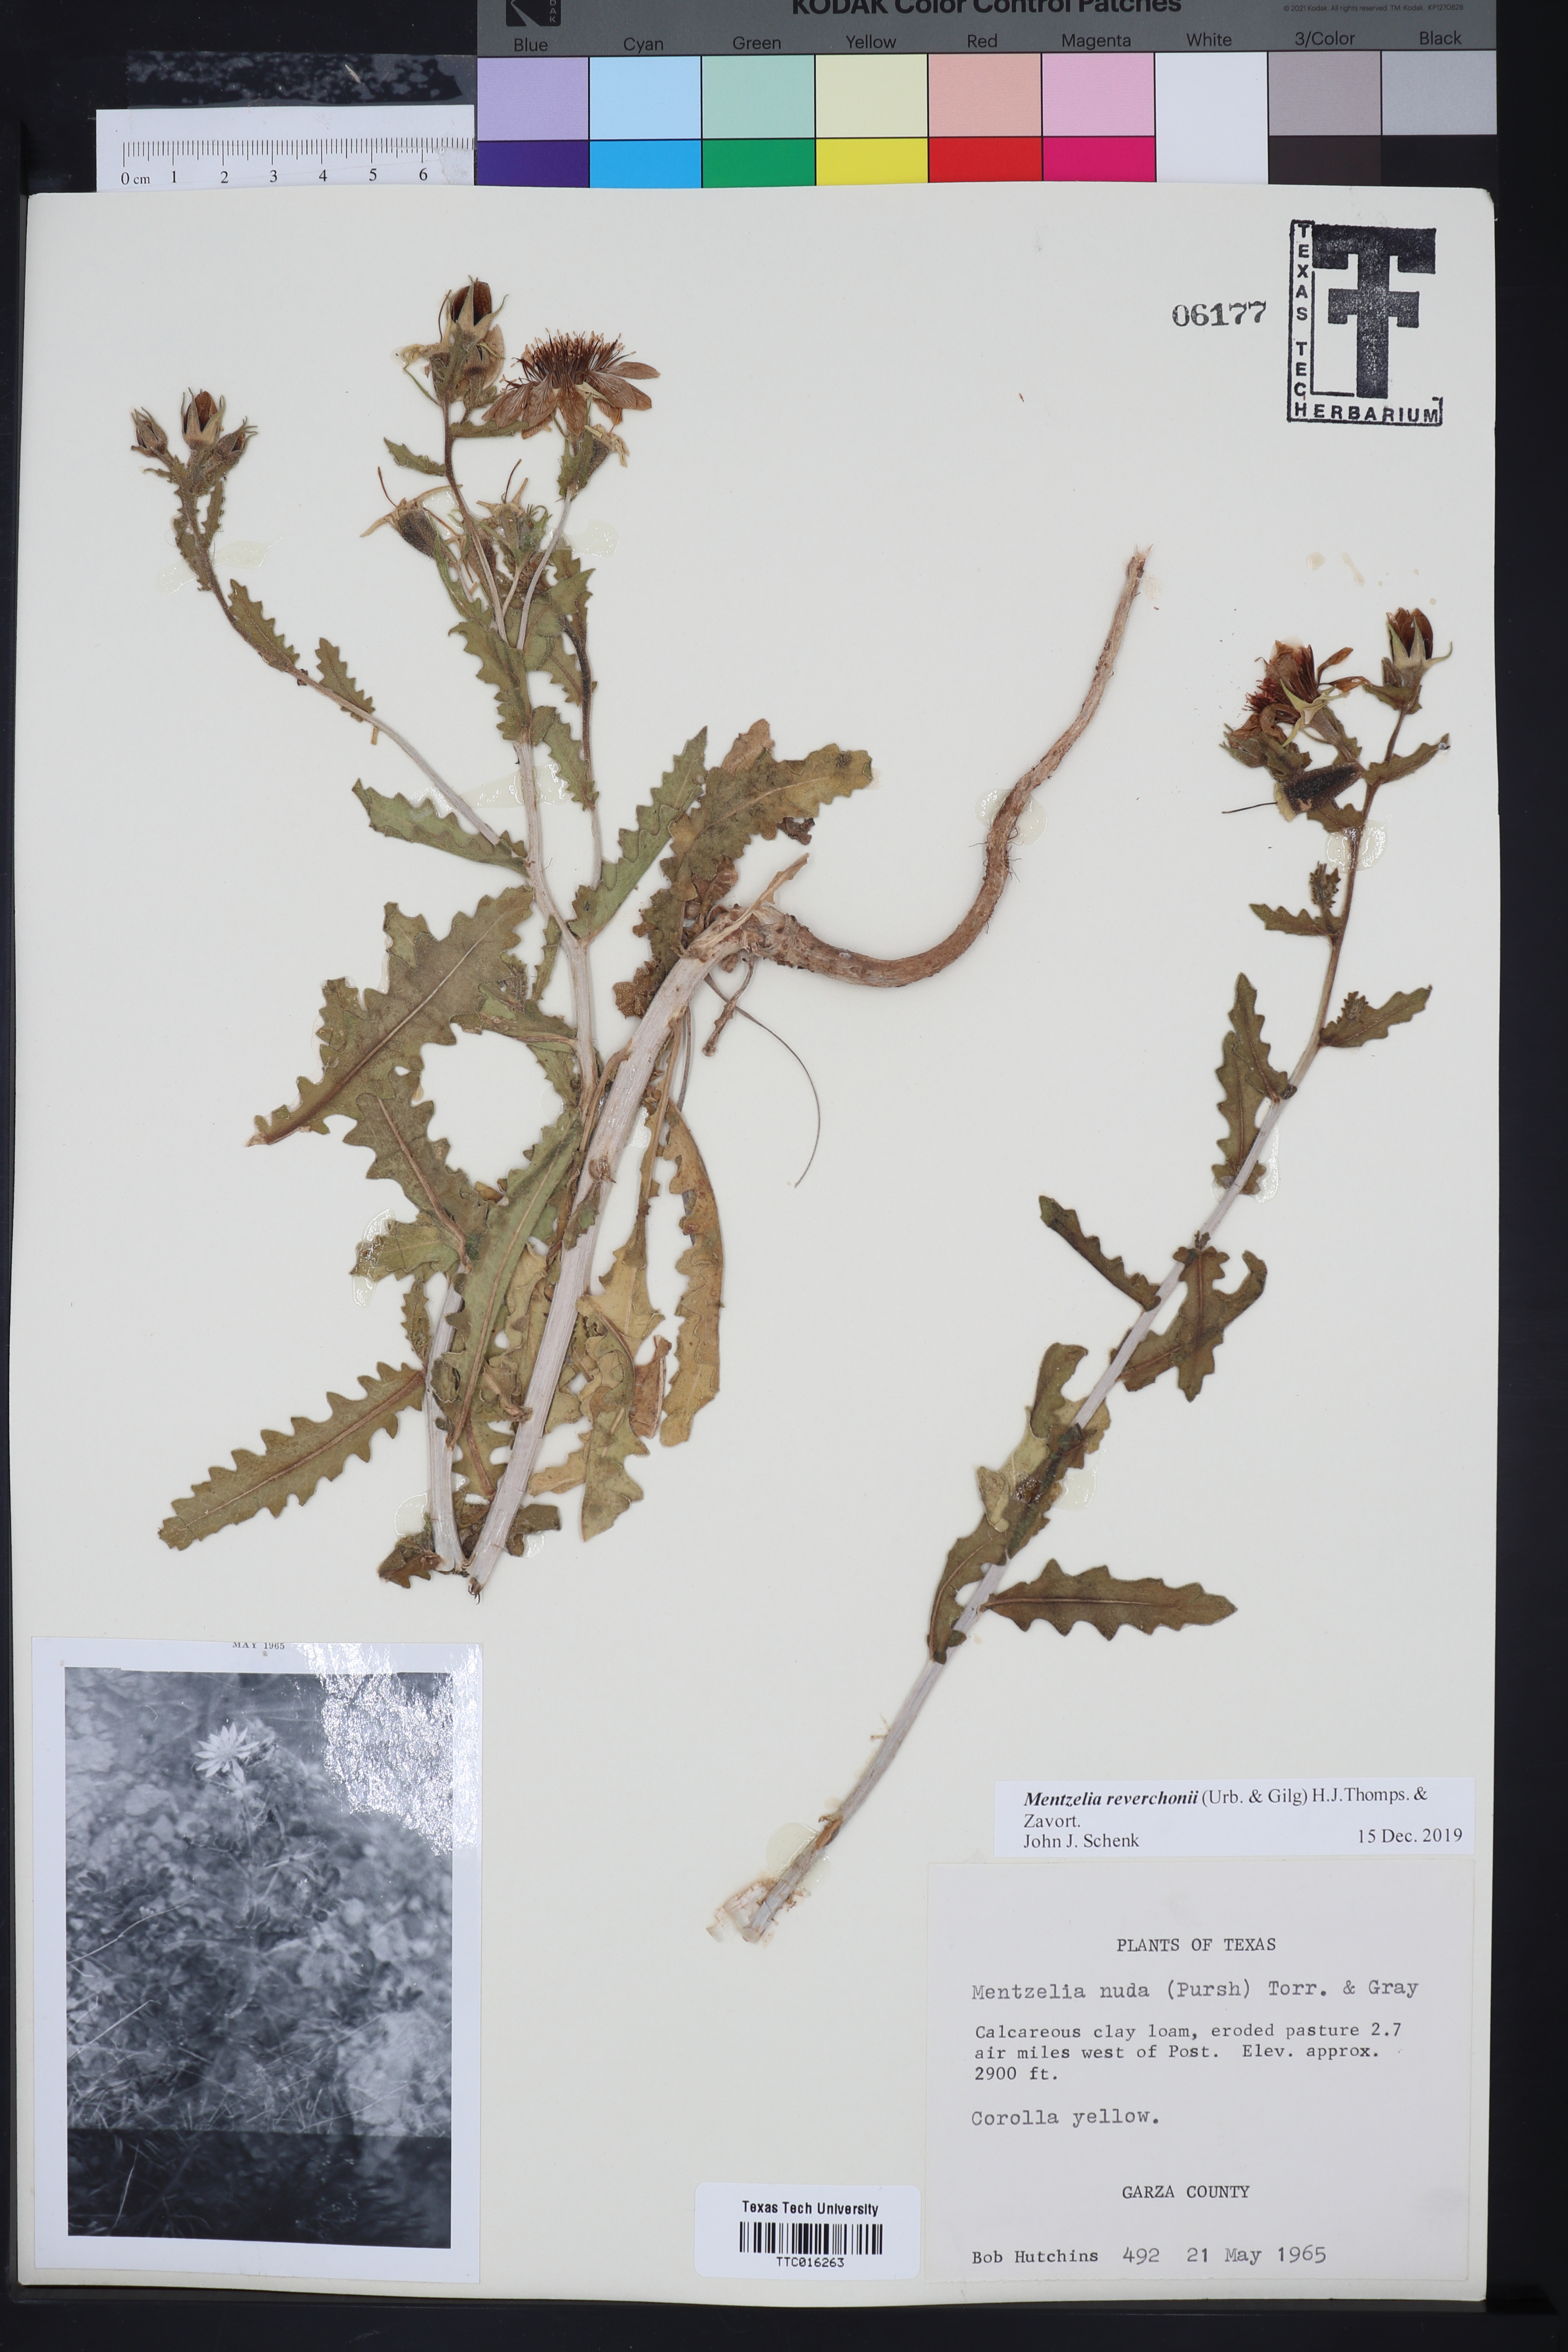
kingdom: Plantae
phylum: Tracheophyta
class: Magnoliopsida
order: Cornales
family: Loasaceae
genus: Mentzelia
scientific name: Mentzelia reverchonii
